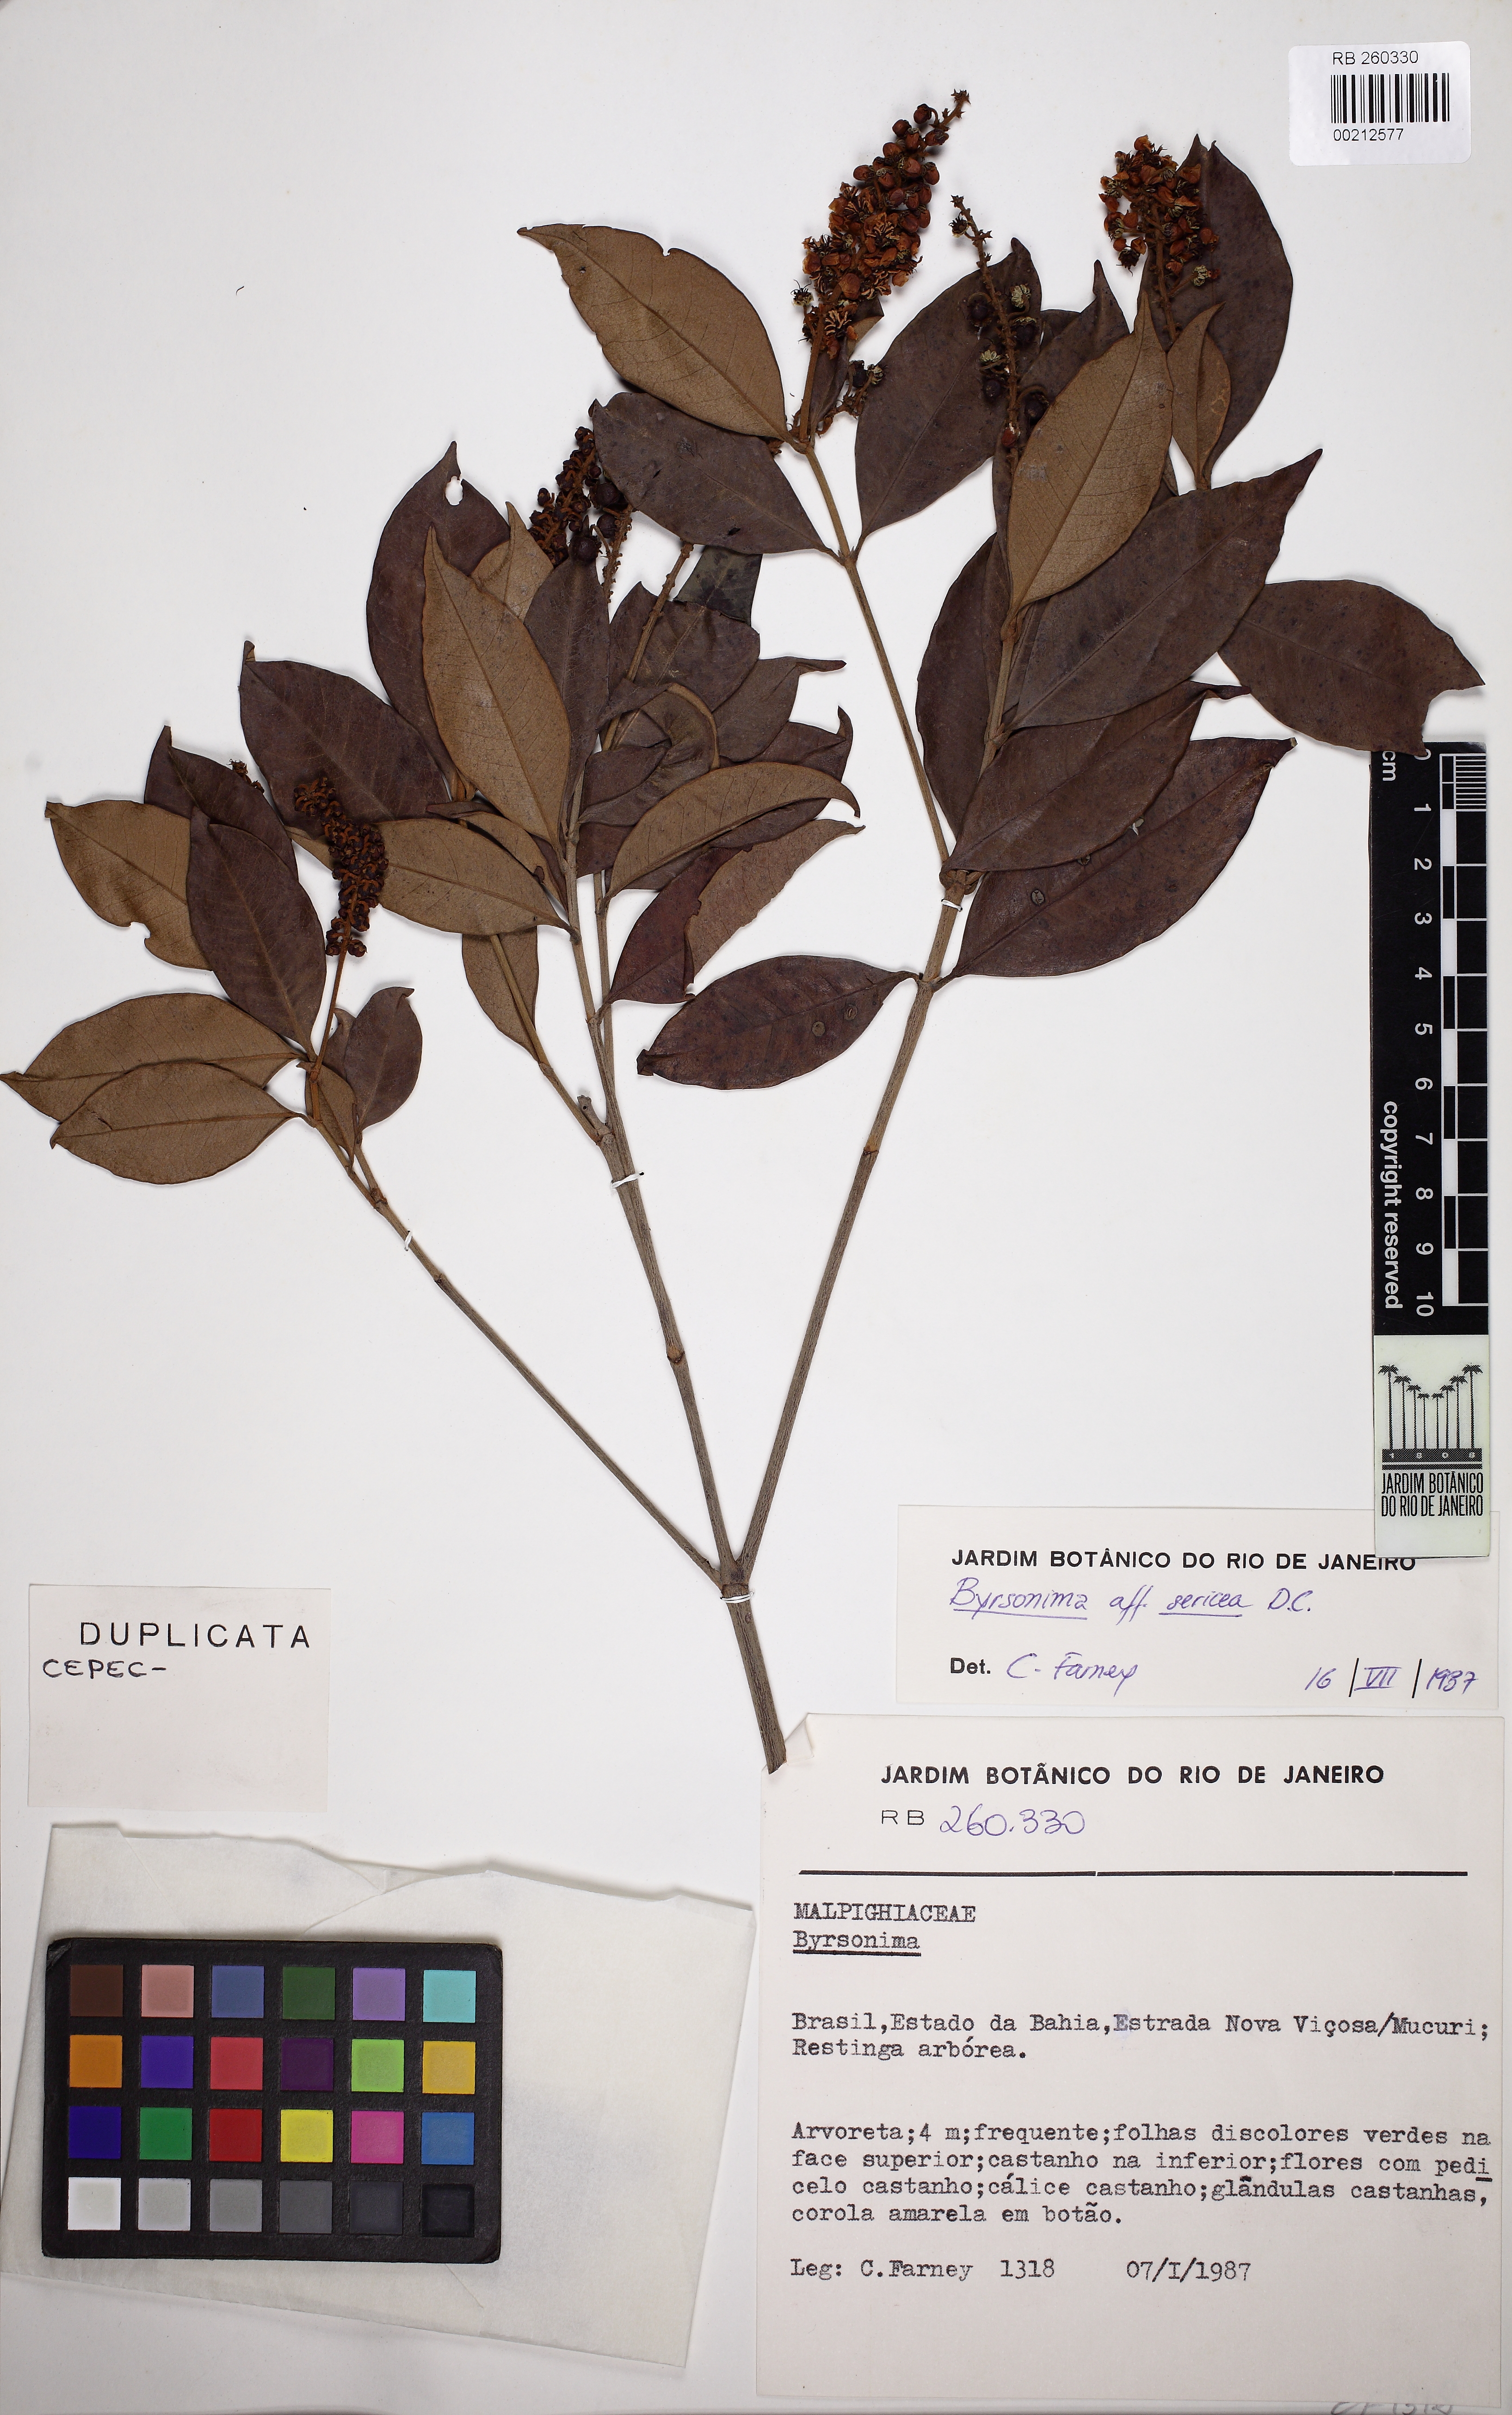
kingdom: Plantae
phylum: Tracheophyta
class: Magnoliopsida
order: Malpighiales
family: Malpighiaceae
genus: Byrsonima
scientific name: Byrsonima sericea
